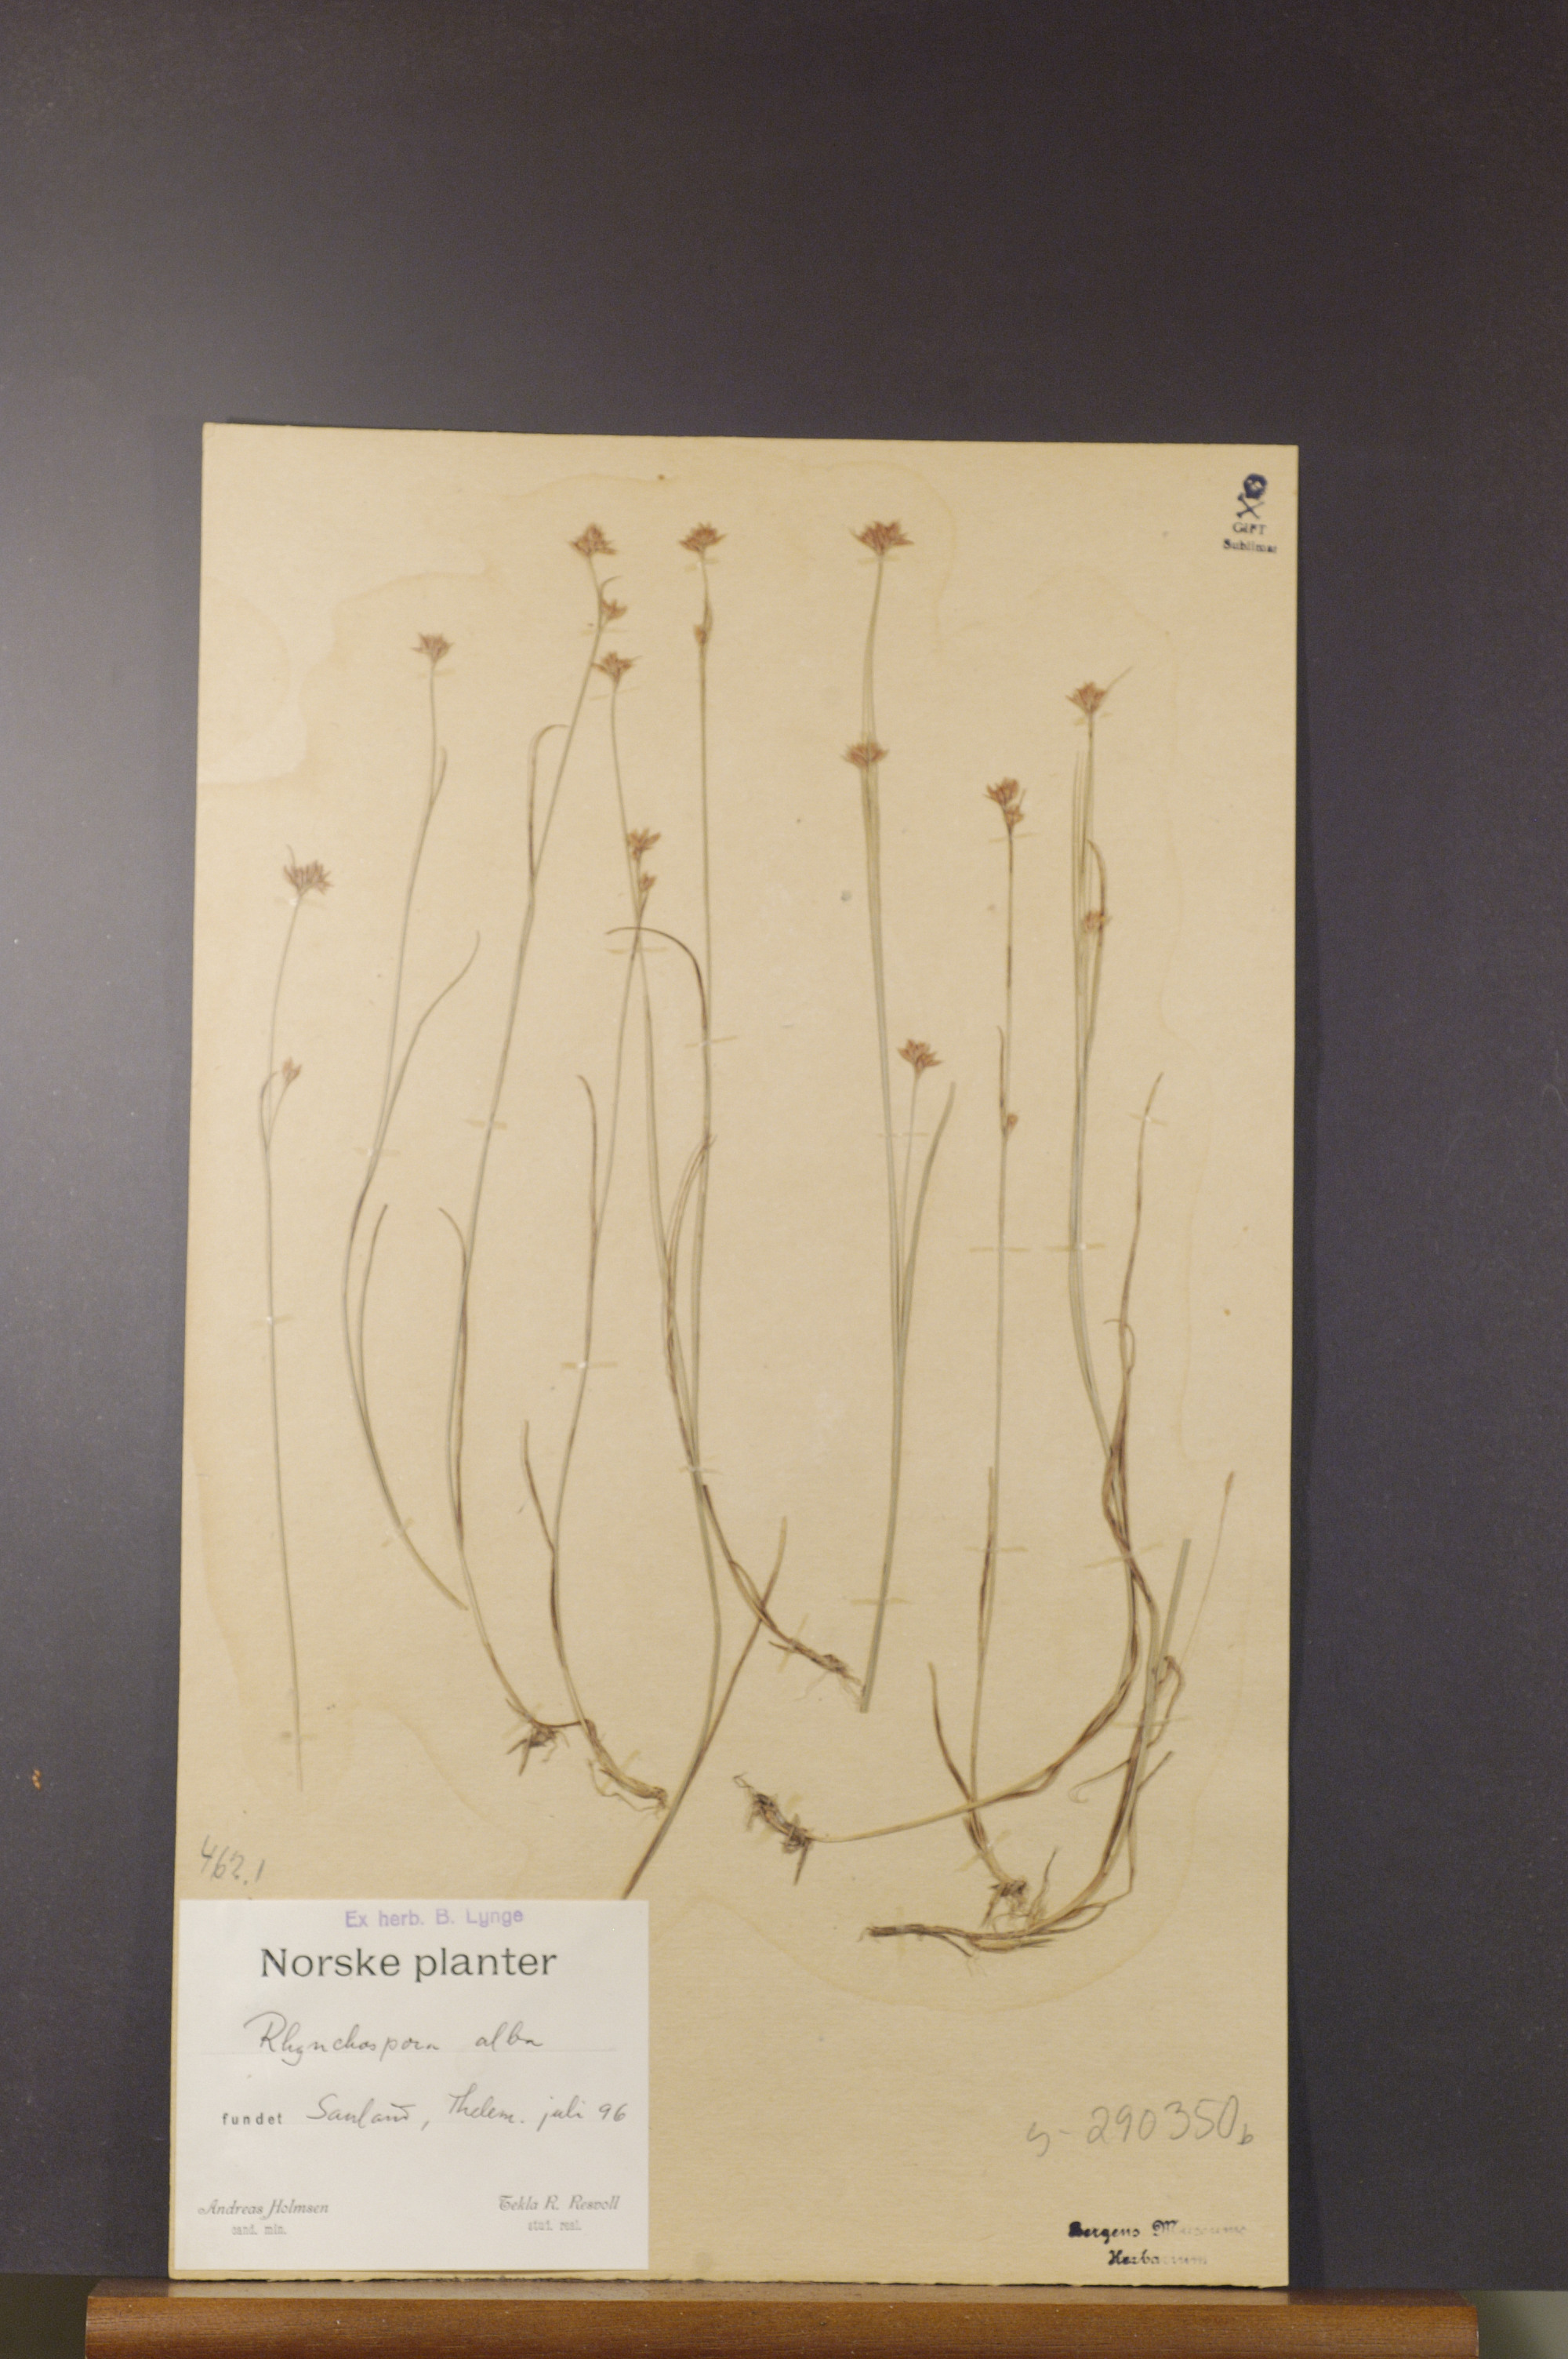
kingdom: Plantae
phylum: Tracheophyta
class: Liliopsida
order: Poales
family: Cyperaceae
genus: Rhynchospora
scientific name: Rhynchospora alba
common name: White beak-sedge
